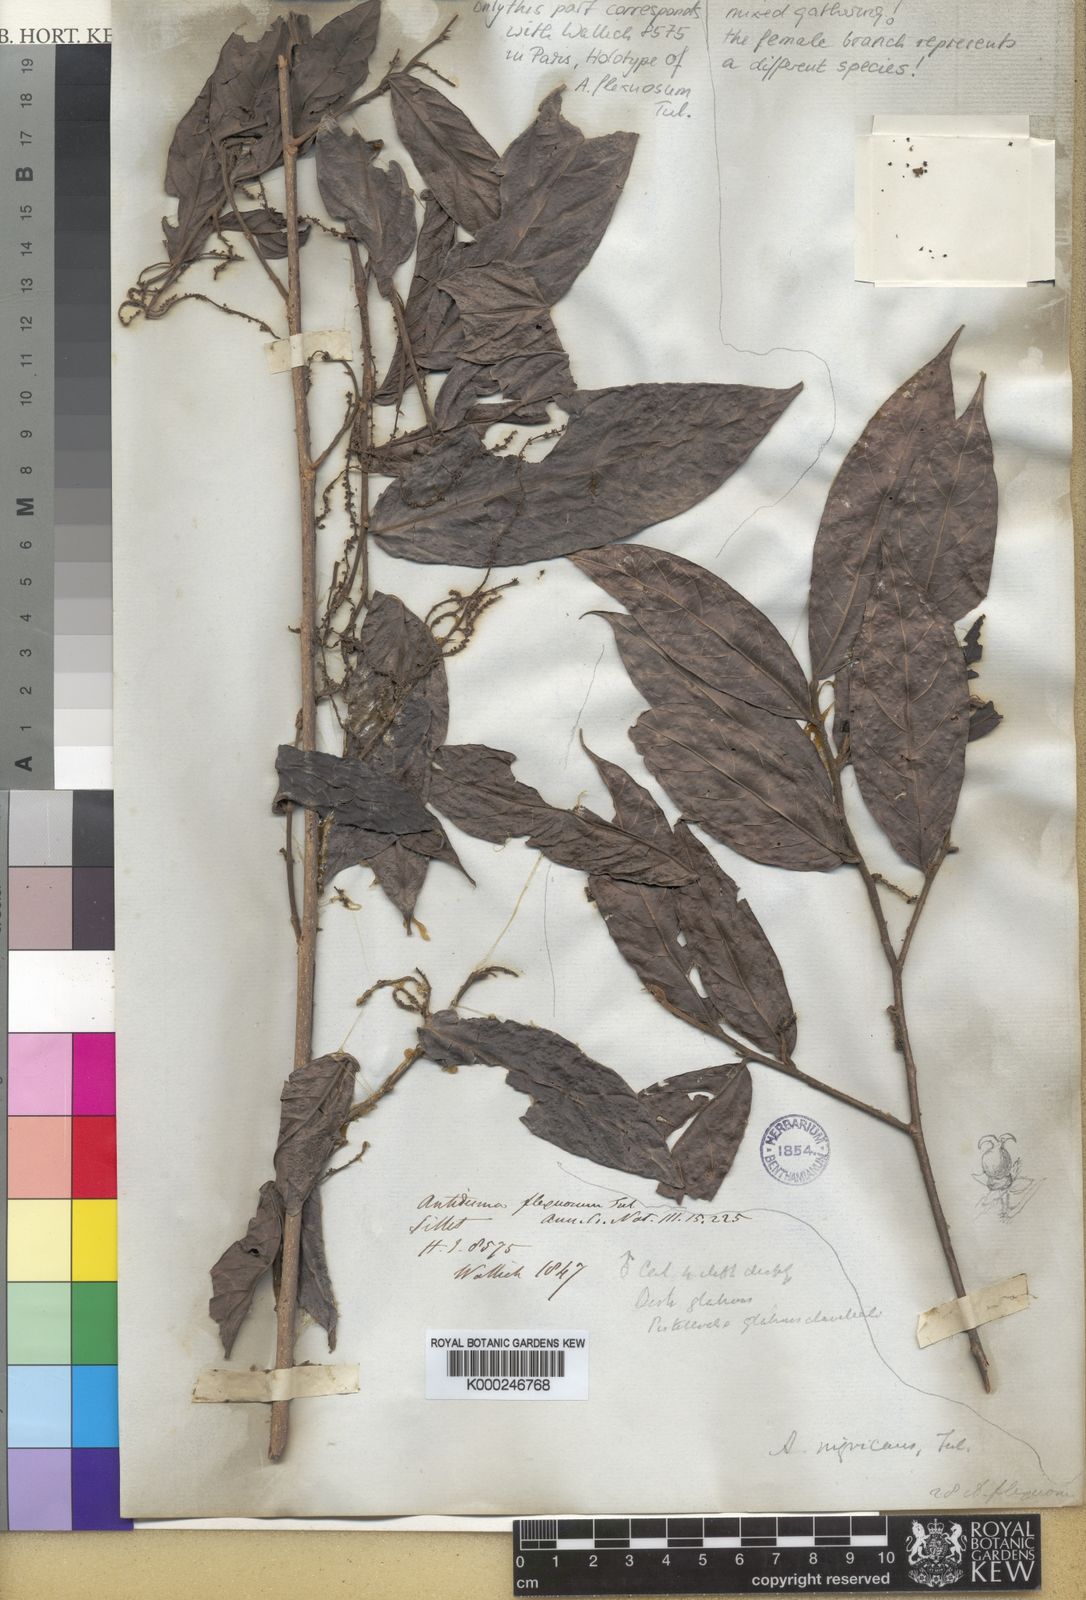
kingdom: Plantae
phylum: Tracheophyta
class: Magnoliopsida
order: Malpighiales
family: Phyllanthaceae
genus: Antidesma
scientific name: Antidesma nigricans
